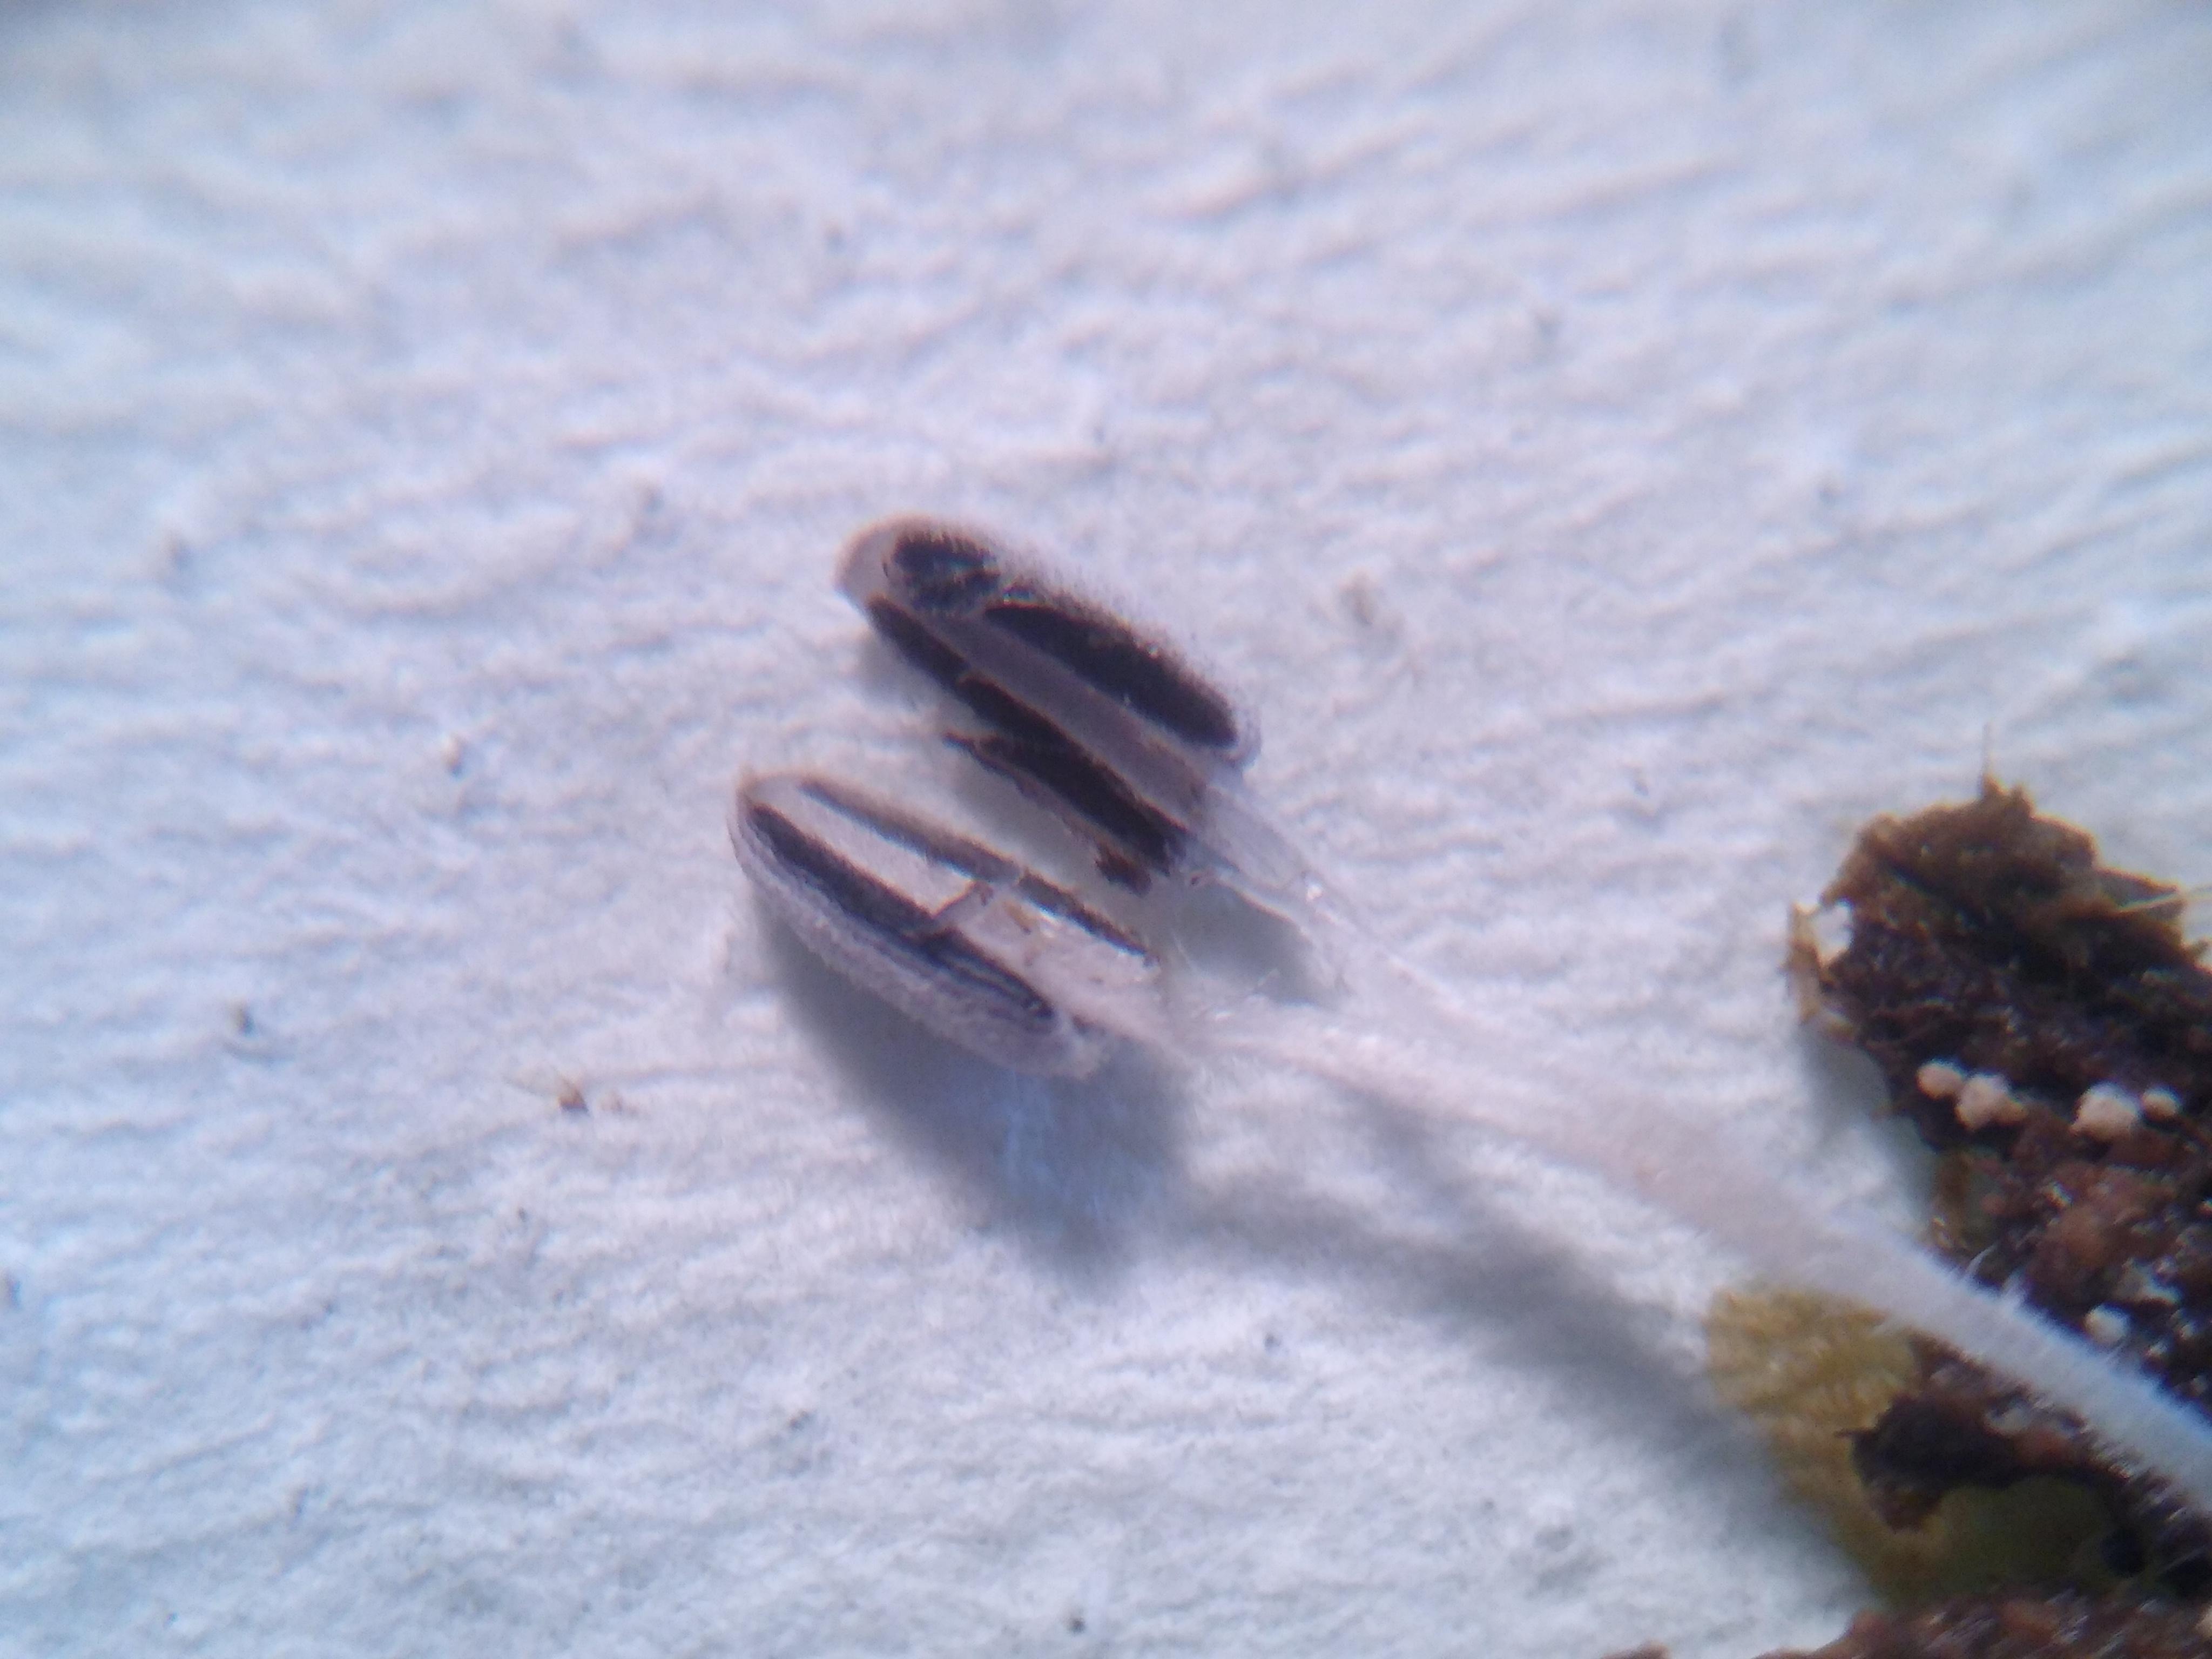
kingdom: Fungi
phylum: Basidiomycota
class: Agaricomycetes
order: Agaricales
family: Psathyrellaceae
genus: Coprinopsis
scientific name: Coprinopsis
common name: blækhat
